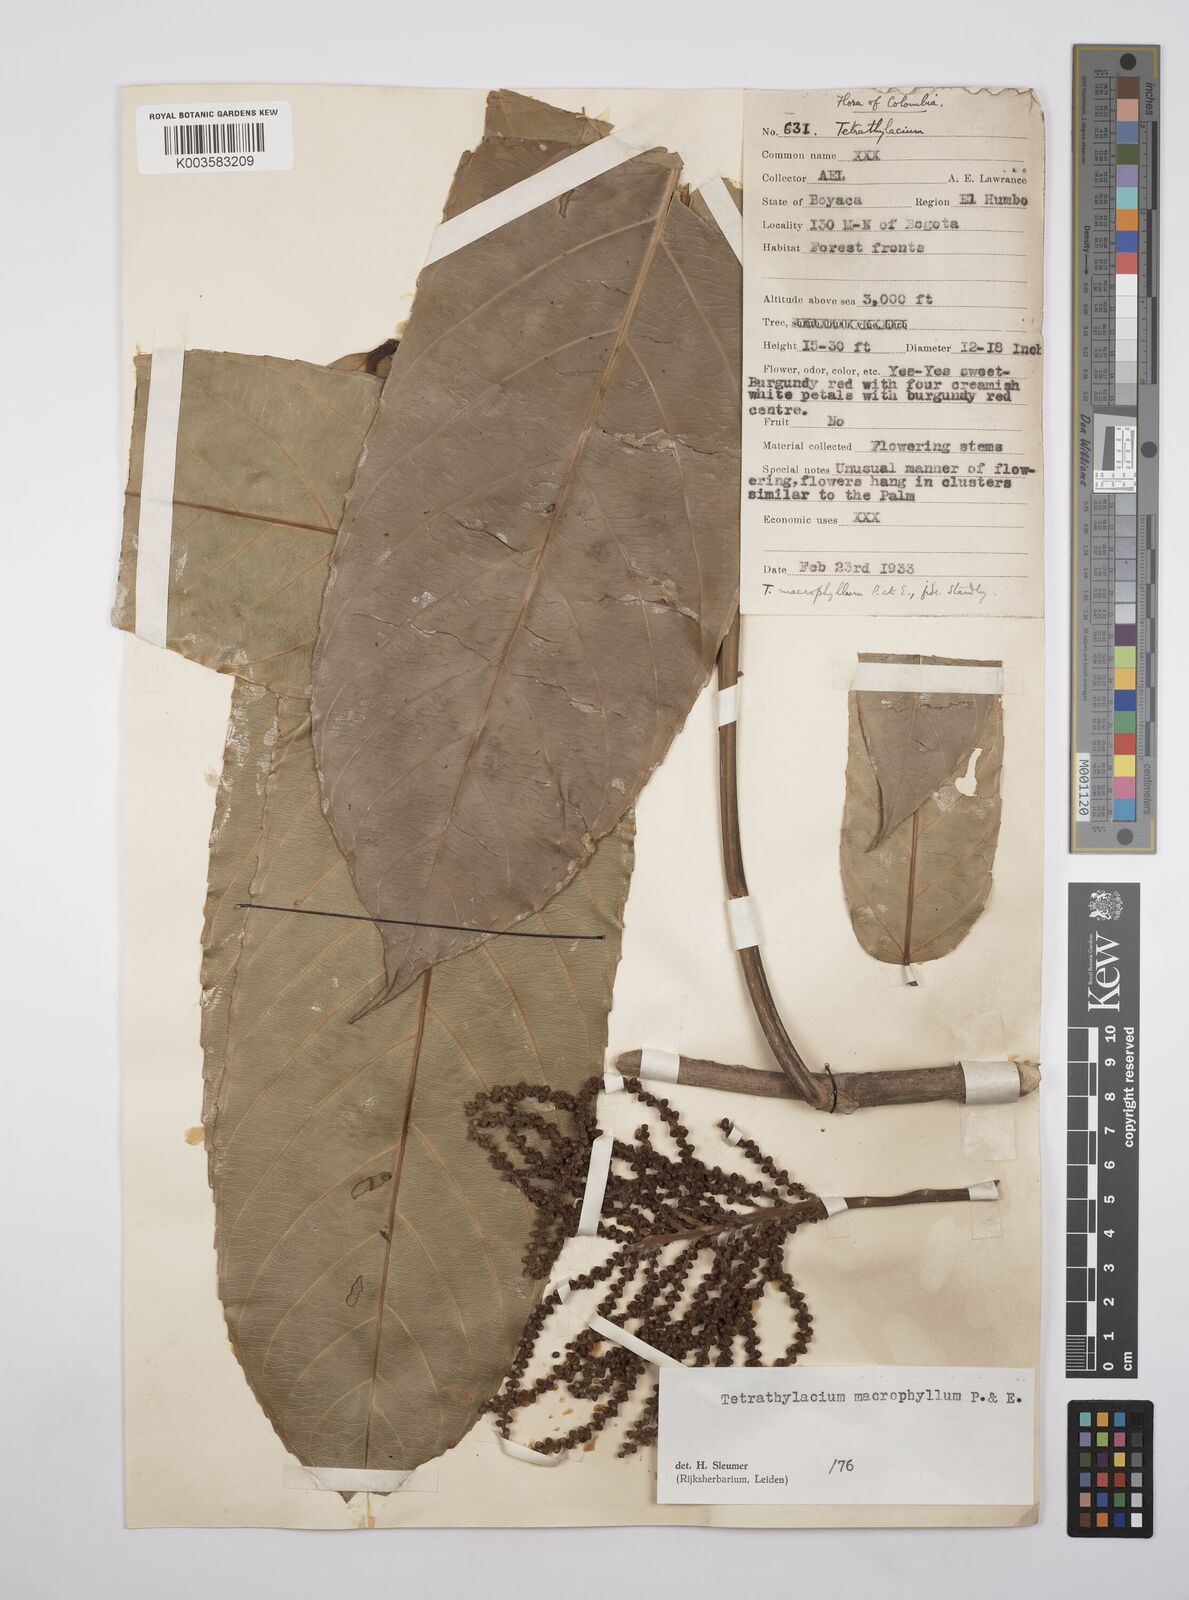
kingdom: Plantae
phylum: Tracheophyta
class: Magnoliopsida
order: Malpighiales
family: Salicaceae
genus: Tetrathylacium
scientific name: Tetrathylacium macrophyllum
